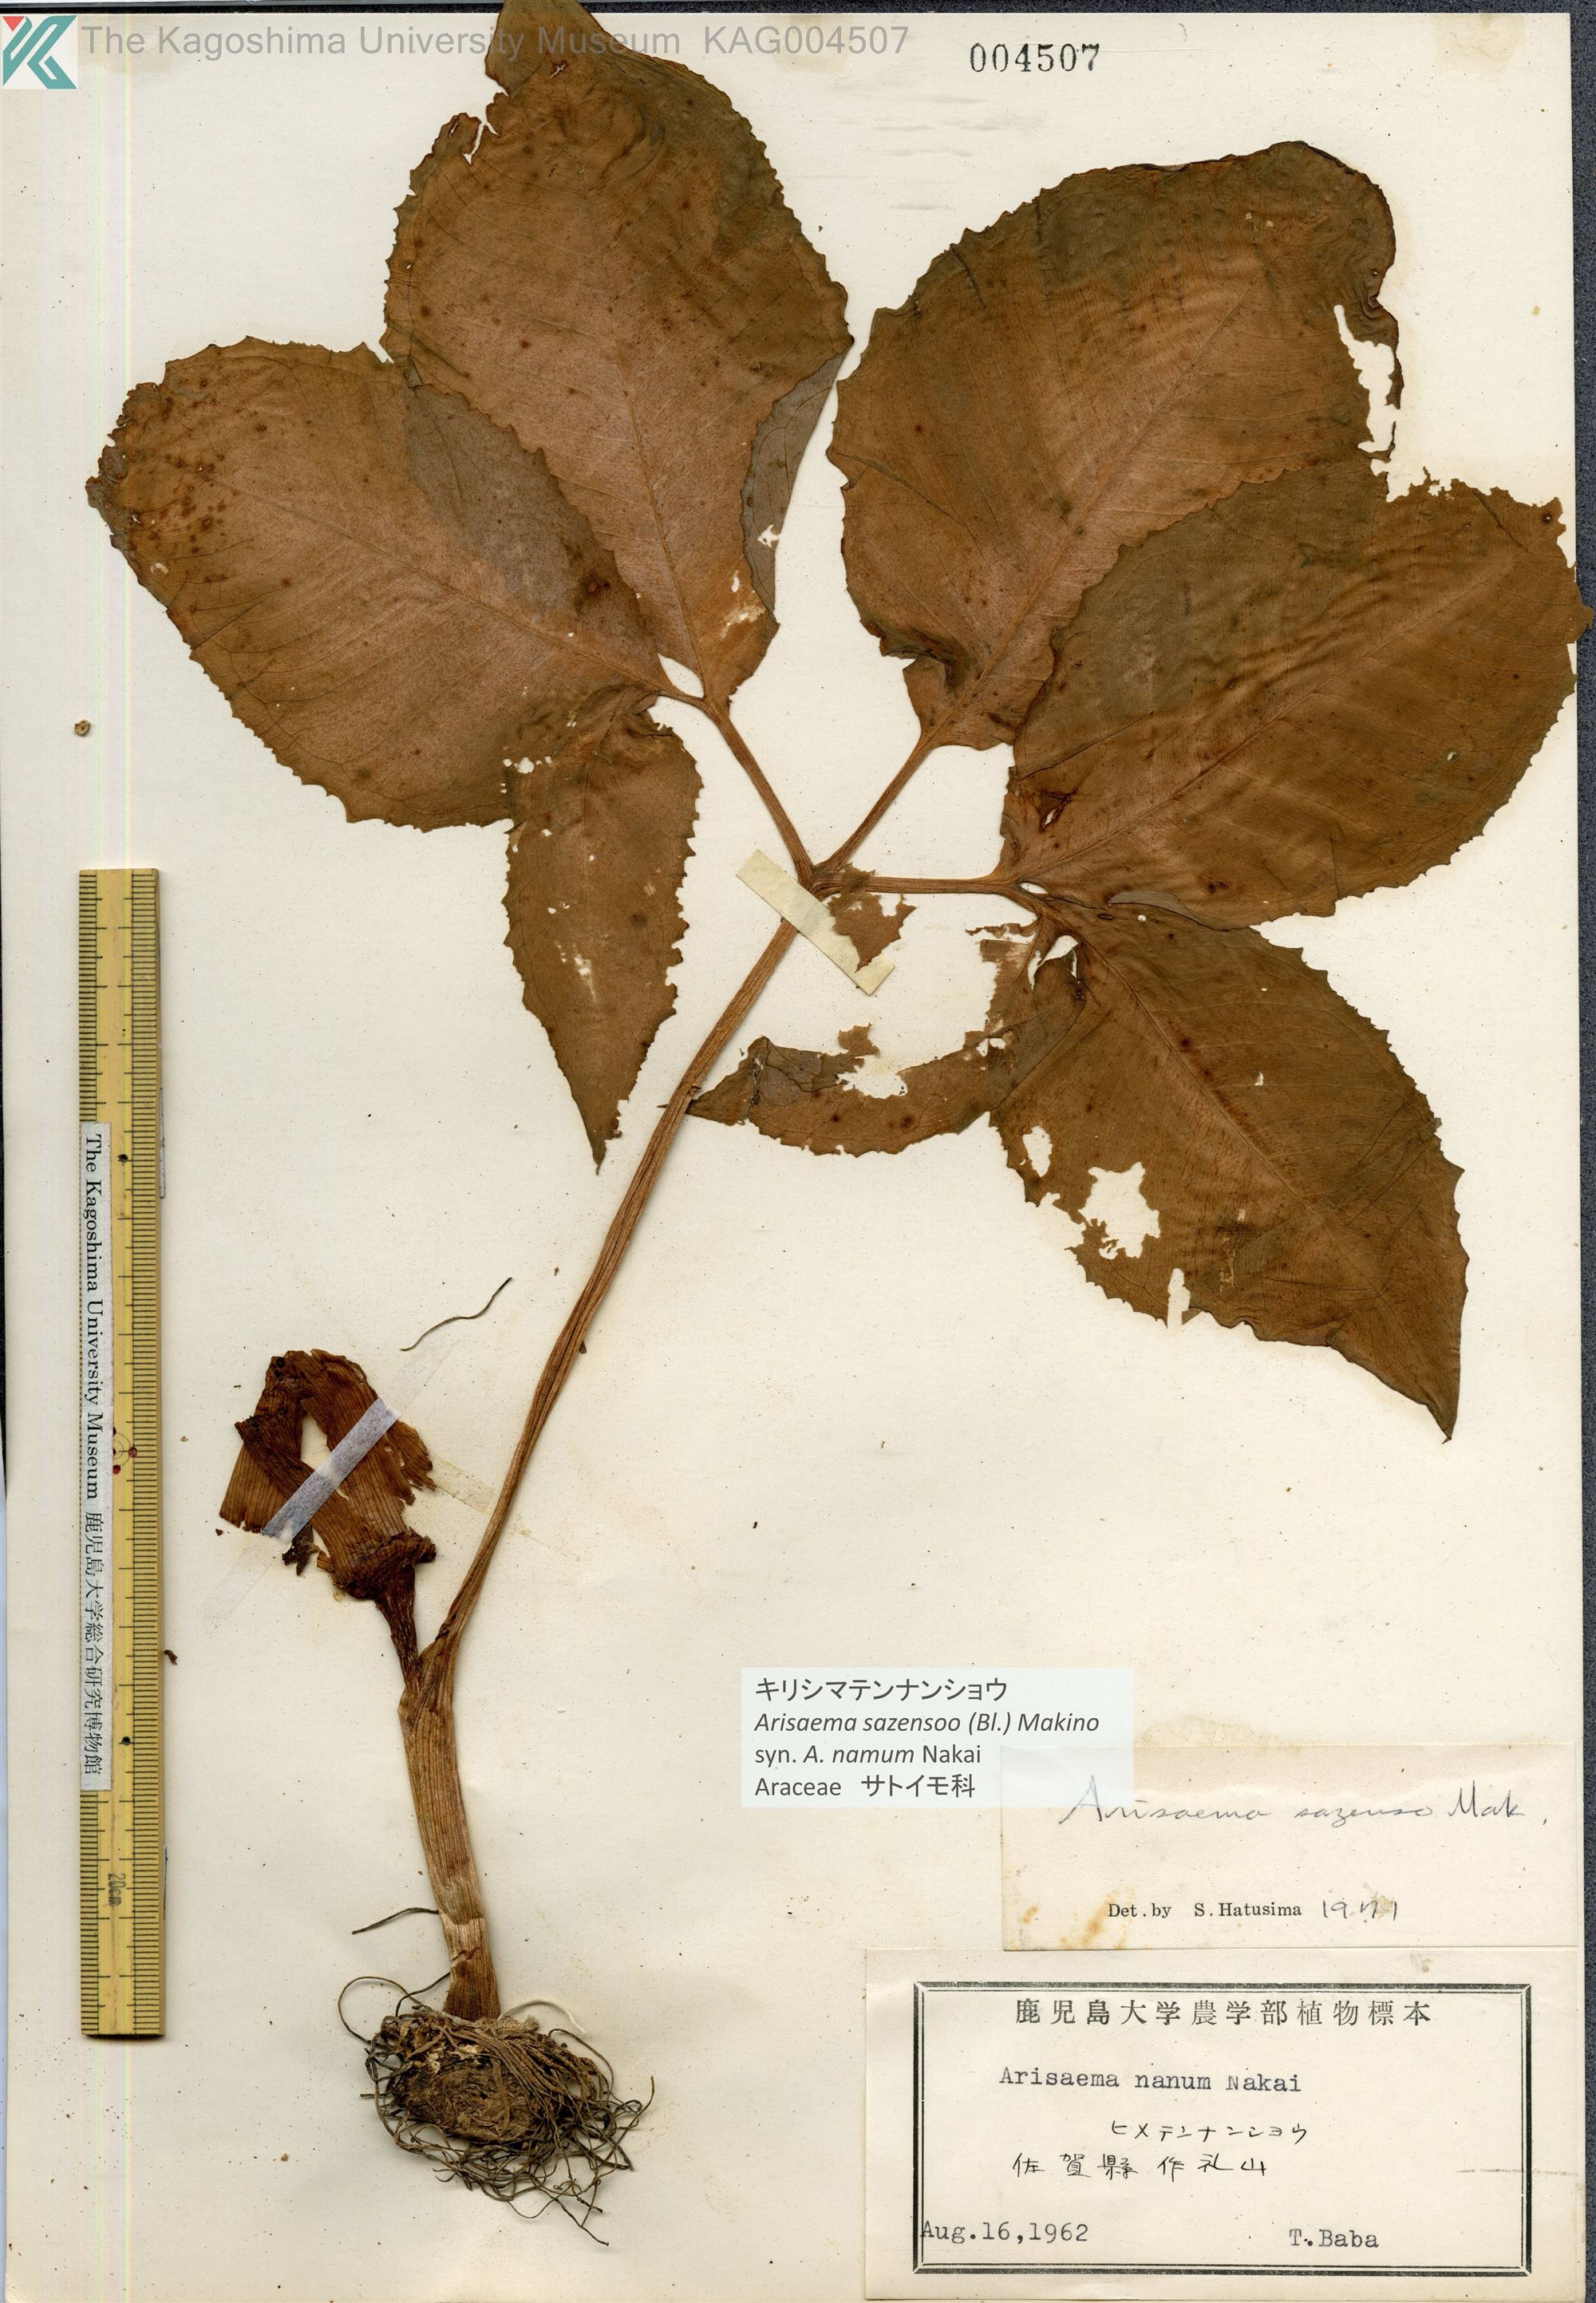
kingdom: Plantae
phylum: Tracheophyta
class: Liliopsida
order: Alismatales
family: Araceae
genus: Arisaema
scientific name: Arisaema sazensoo
